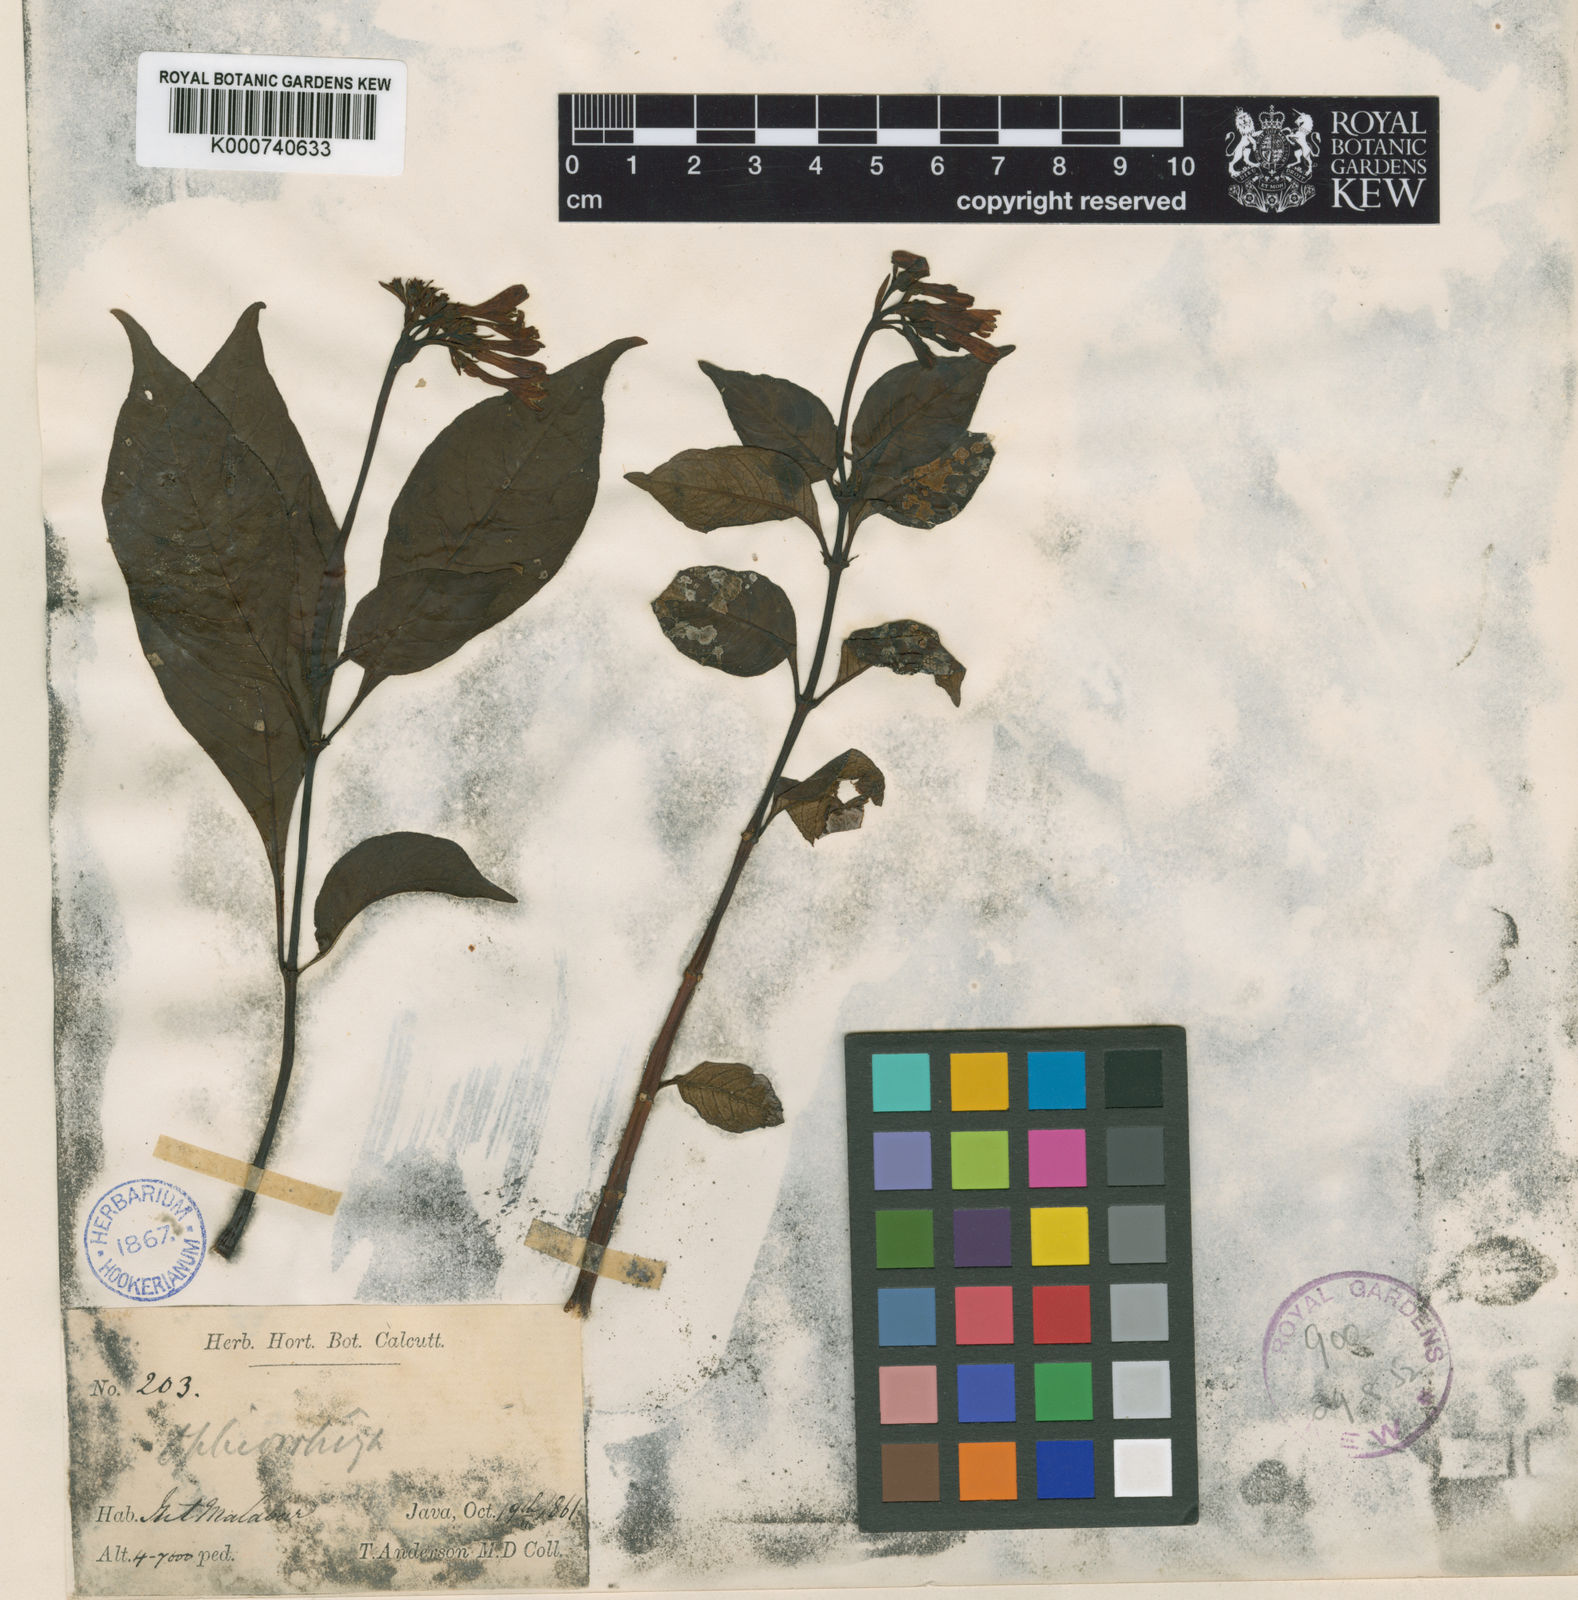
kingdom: Plantae
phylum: Tracheophyta
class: Magnoliopsida
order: Gentianales
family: Rubiaceae
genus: Ophiorrhiza
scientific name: Ophiorrhiza longiflora
